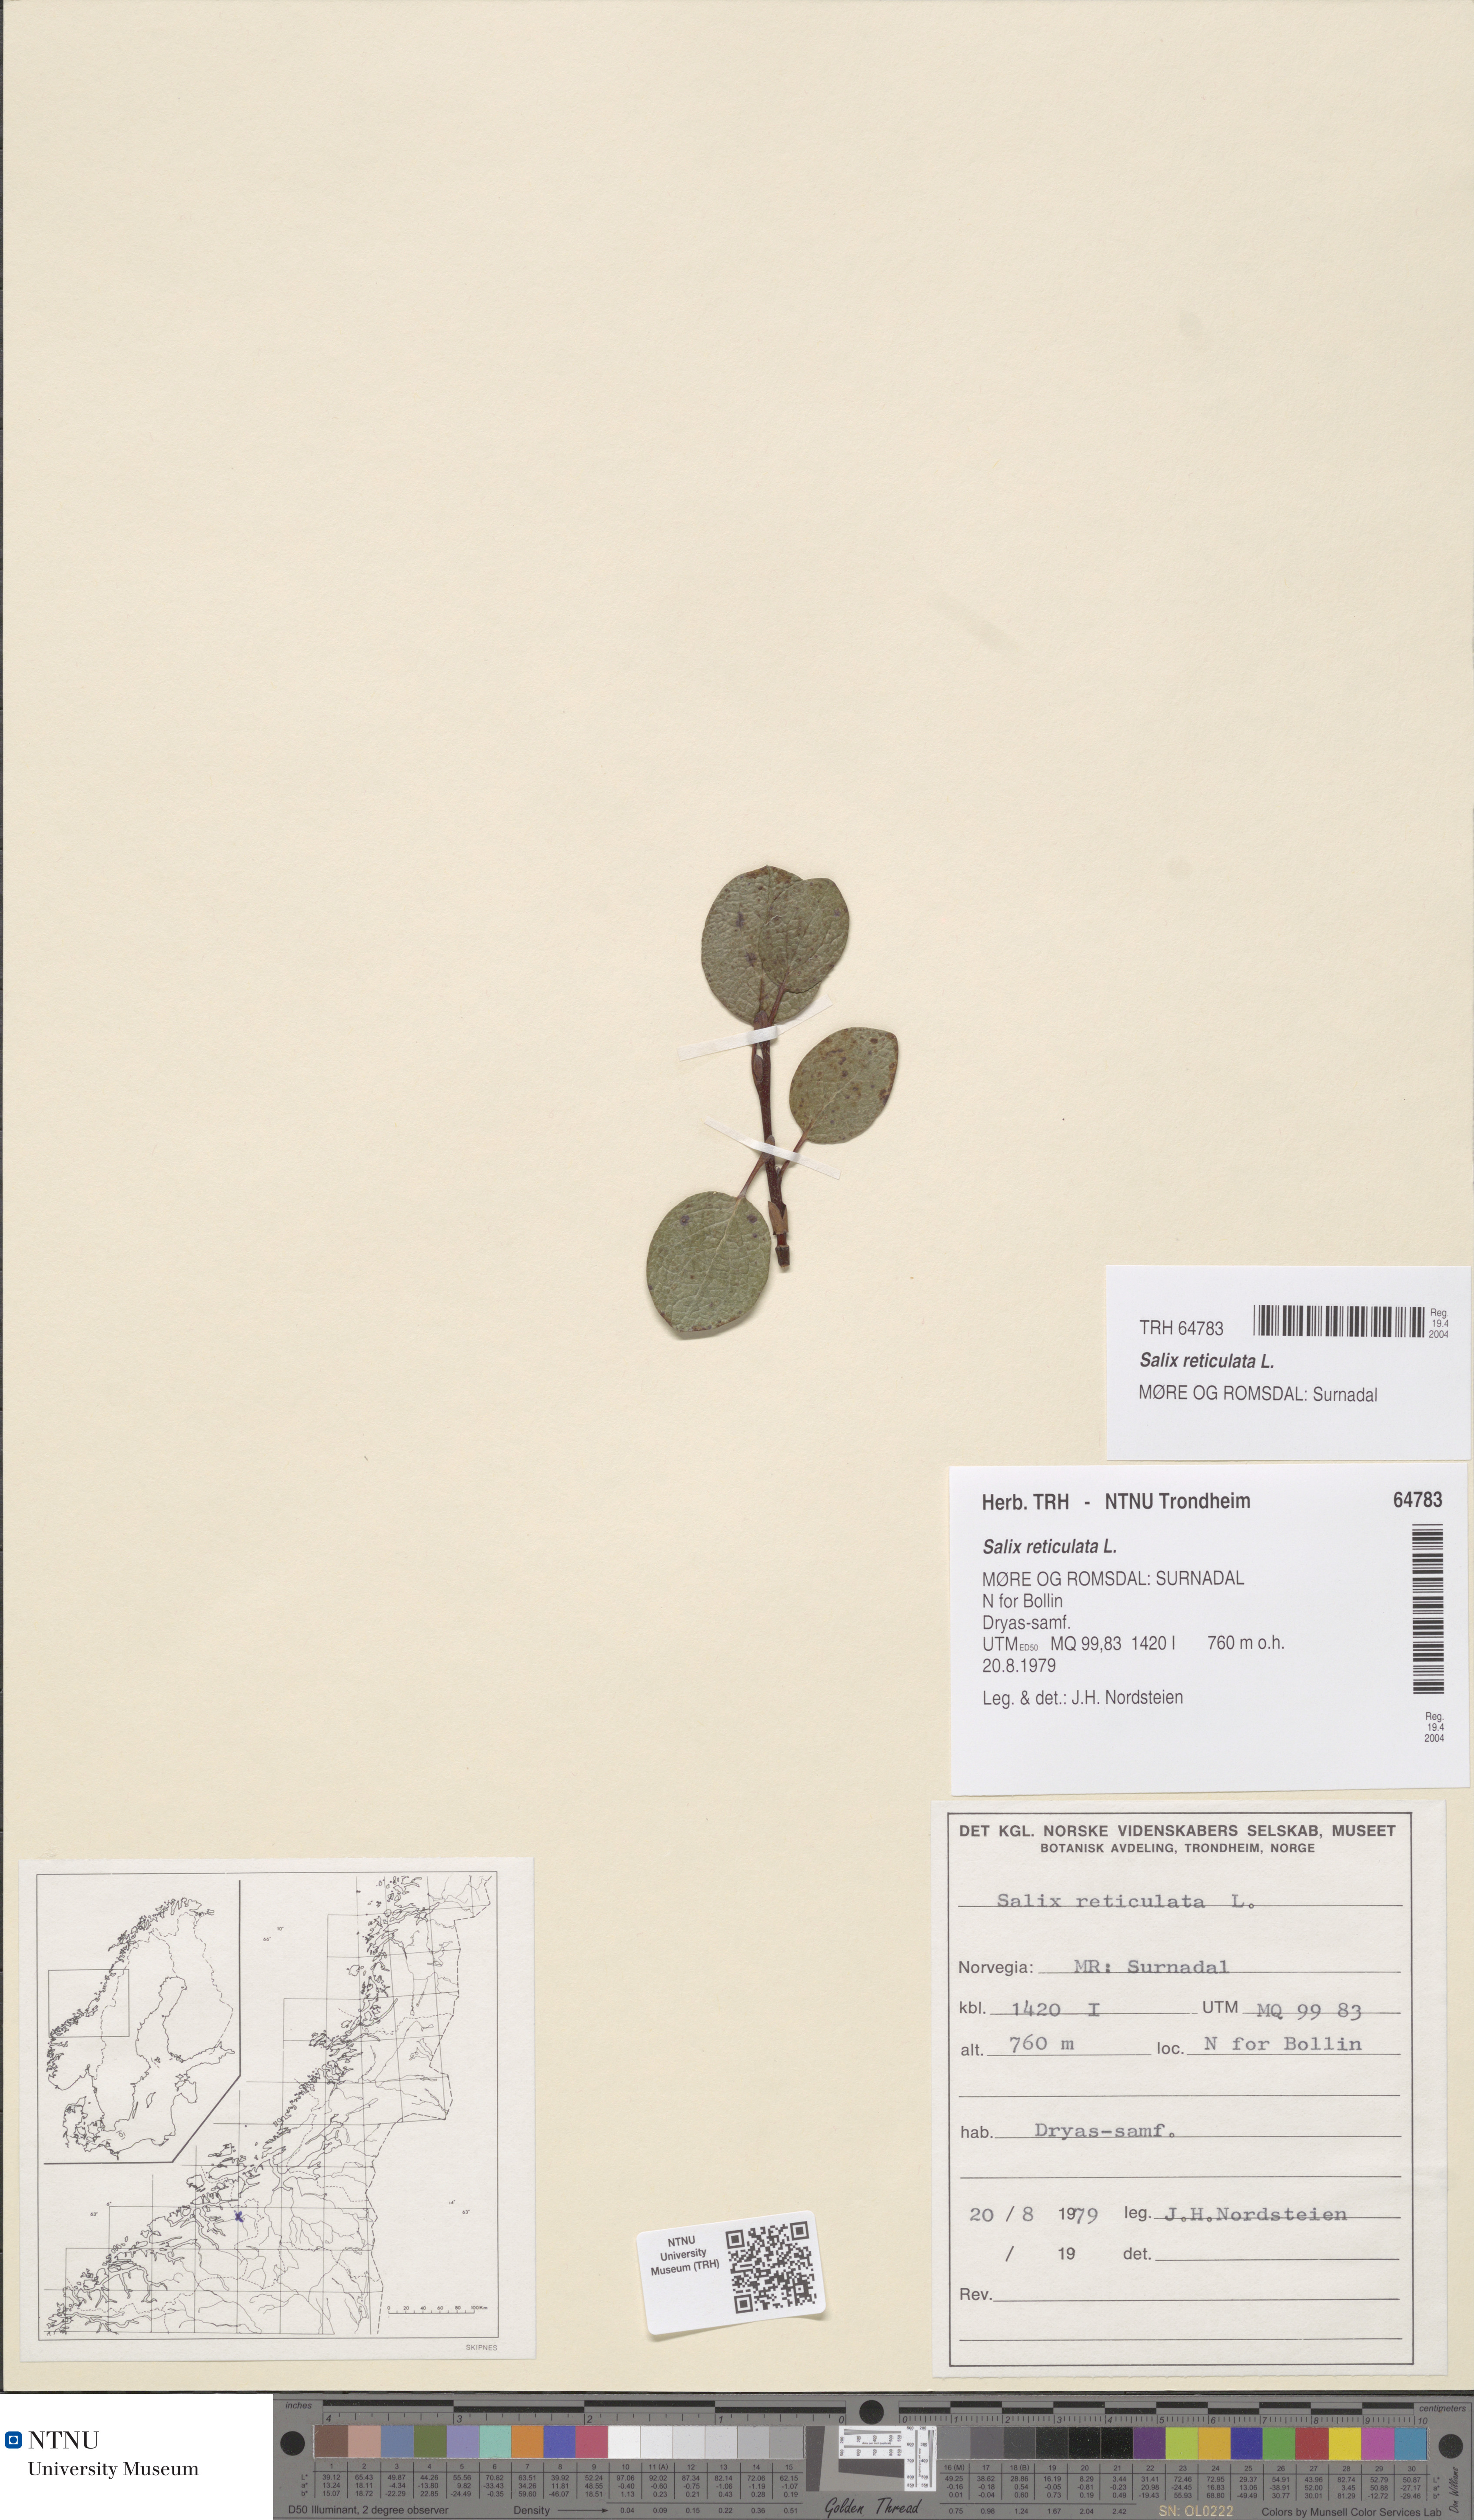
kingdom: Plantae
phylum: Tracheophyta
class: Magnoliopsida
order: Malpighiales
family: Salicaceae
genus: Salix
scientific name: Salix reticulata
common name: Net-leaved willow
